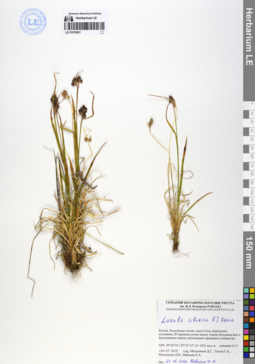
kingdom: Plantae
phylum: Tracheophyta
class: Liliopsida
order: Poales
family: Juncaceae
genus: Luzula
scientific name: Luzula multiflora
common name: Heath wood-rush
